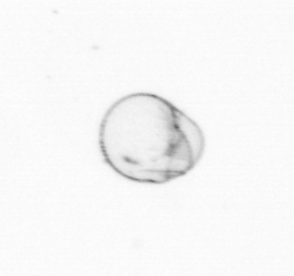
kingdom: Chromista
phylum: Myzozoa
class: Dinophyceae
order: Noctilucales
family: Noctilucaceae
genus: Noctiluca
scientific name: Noctiluca scintillans
